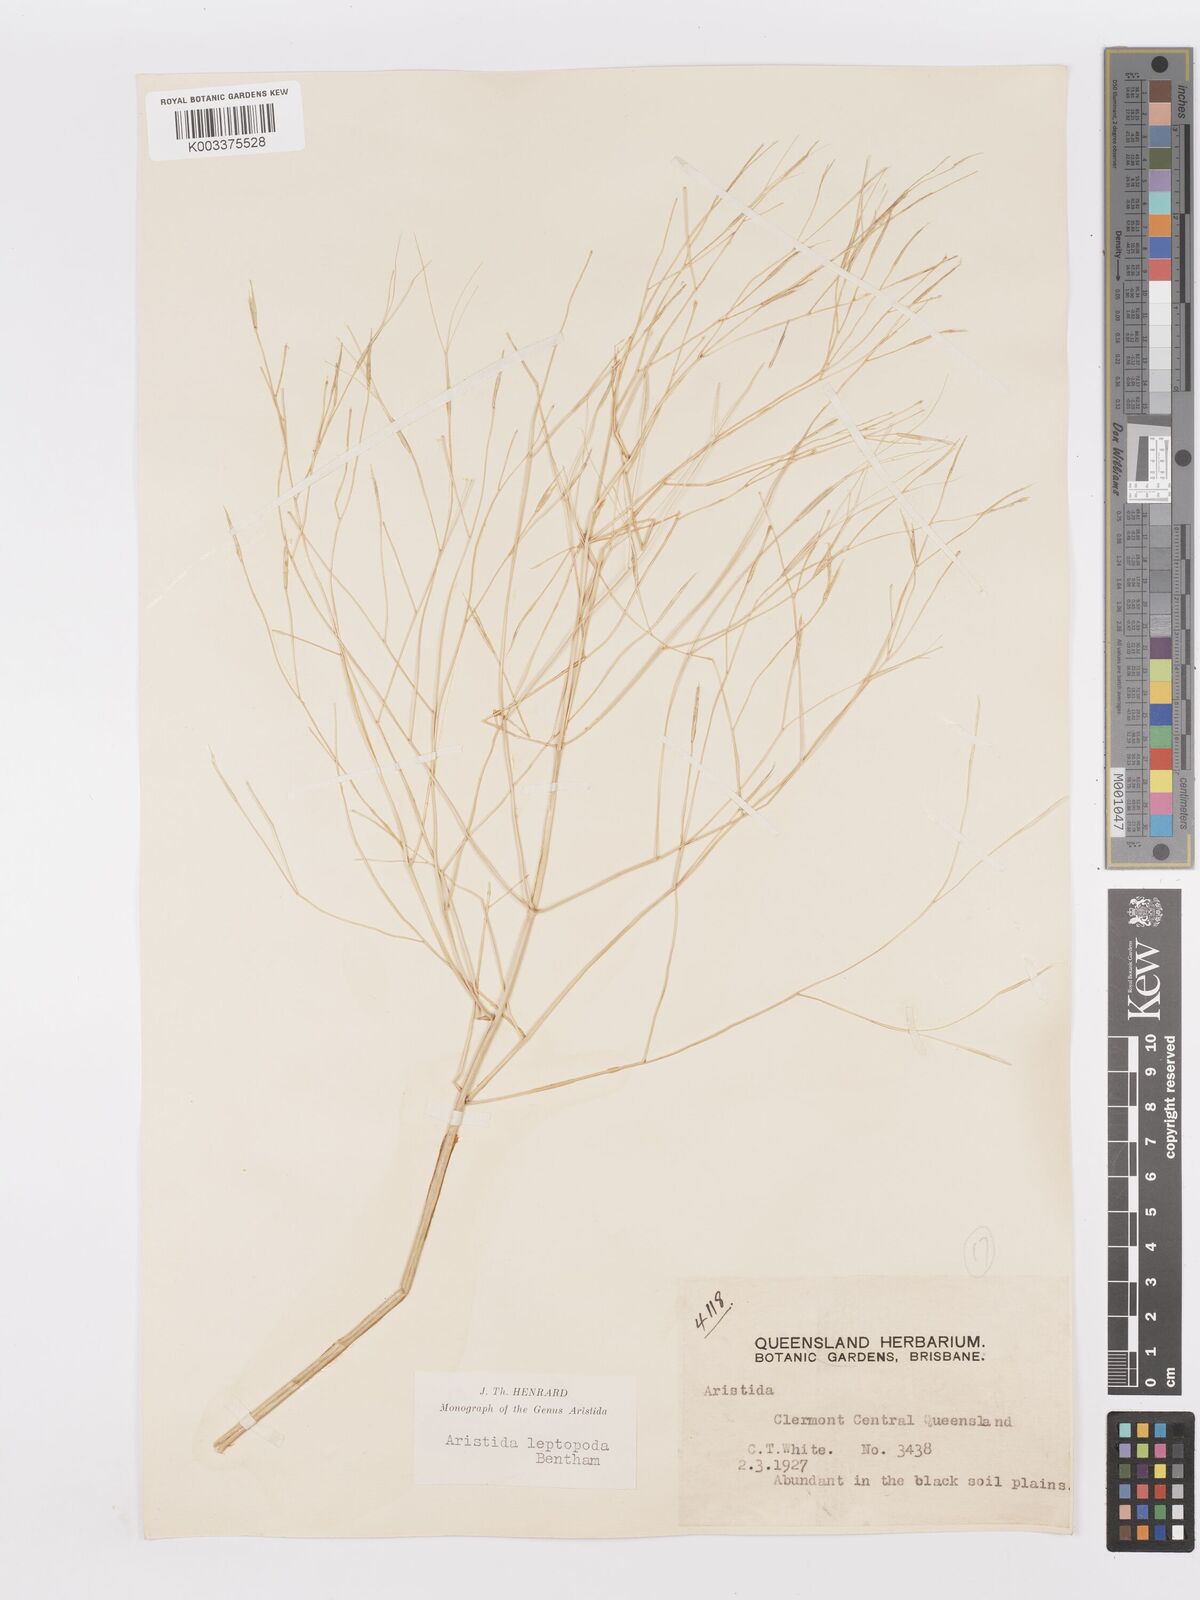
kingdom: Plantae
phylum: Tracheophyta
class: Liliopsida
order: Poales
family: Poaceae
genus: Aristida
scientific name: Aristida leptopoda
